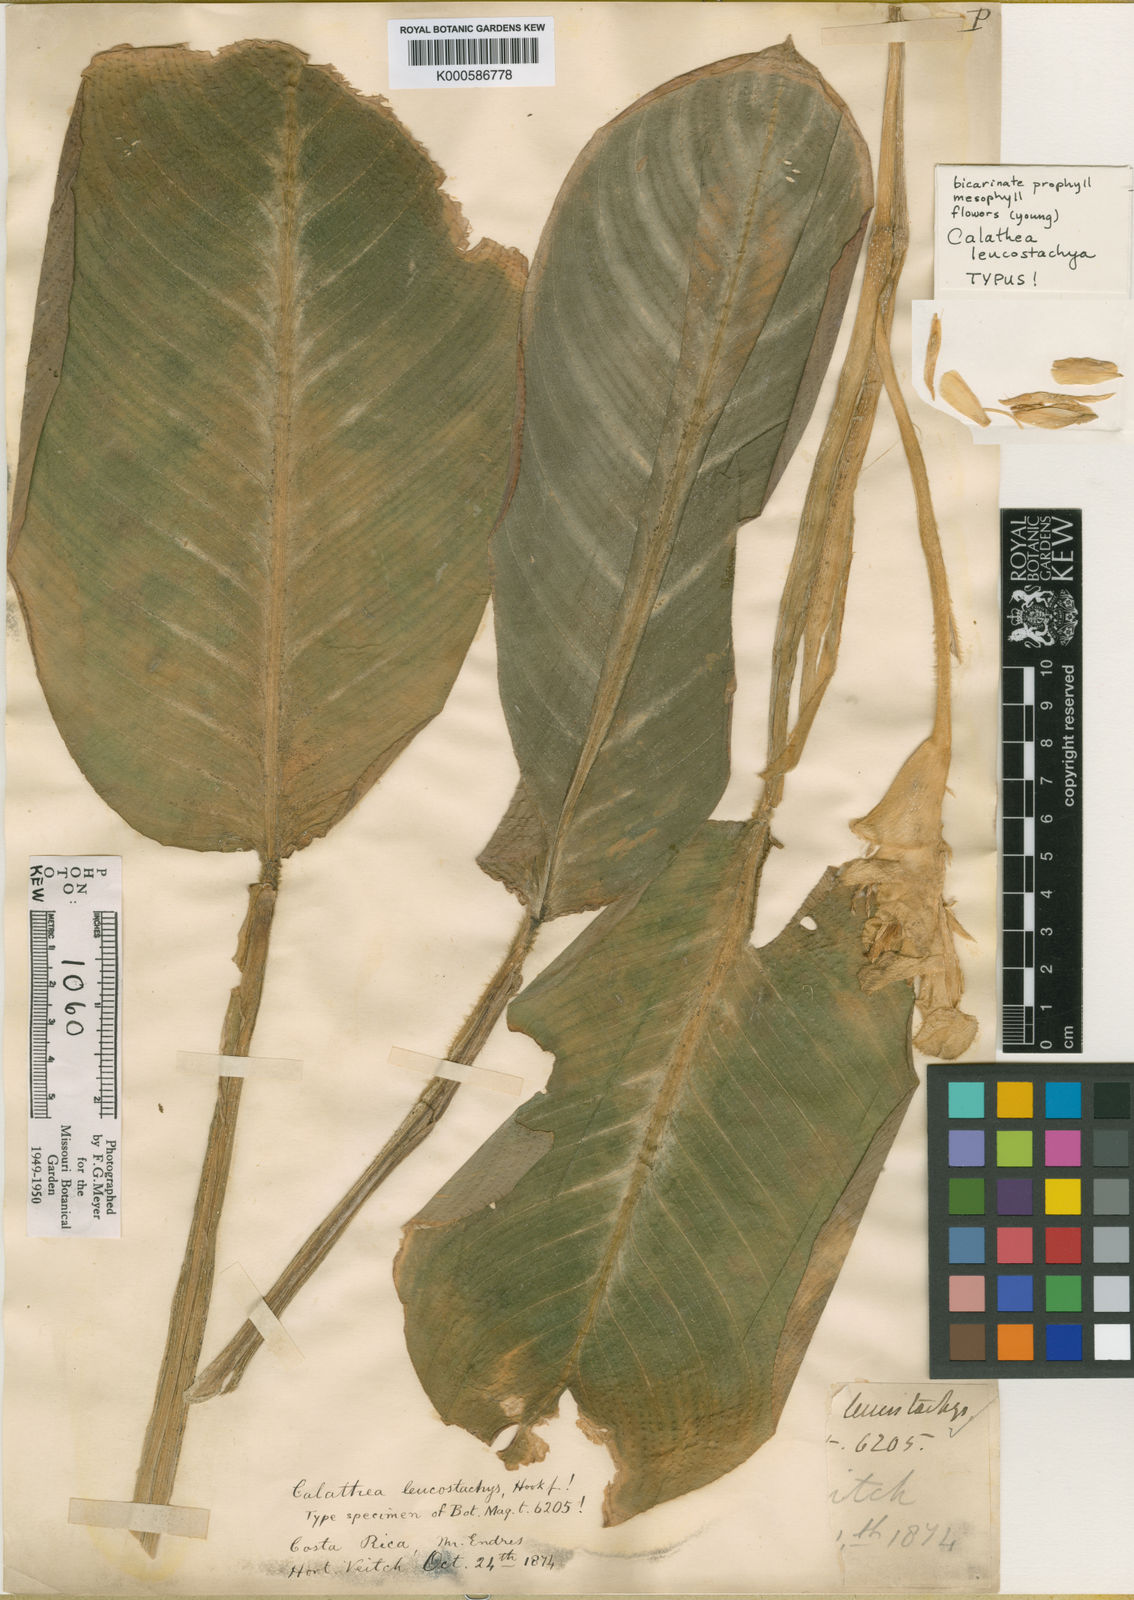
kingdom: Plantae
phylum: Tracheophyta
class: Liliopsida
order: Zingiberales
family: Marantaceae
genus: Goeppertia
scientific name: Goeppertia leucostachys
